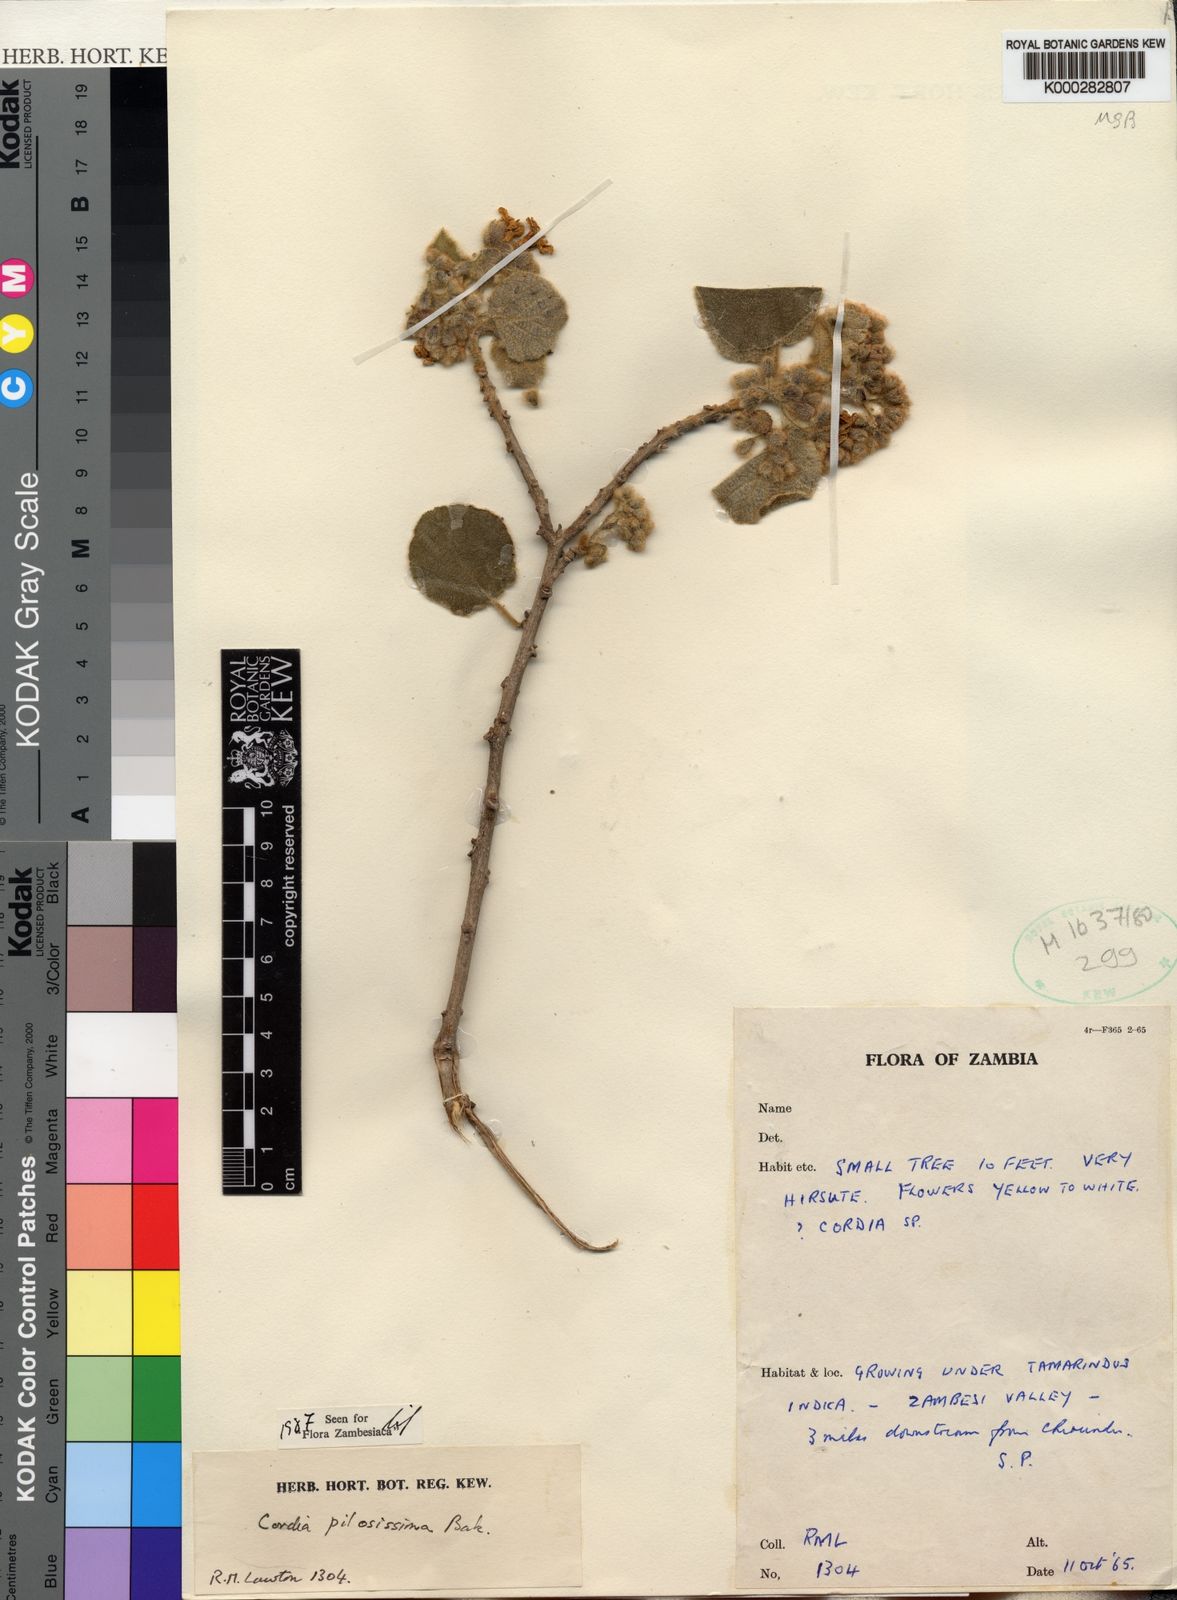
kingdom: Plantae
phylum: Tracheophyta
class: Magnoliopsida
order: Boraginales
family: Cordiaceae
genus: Cordia
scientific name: Cordia pilosissima
